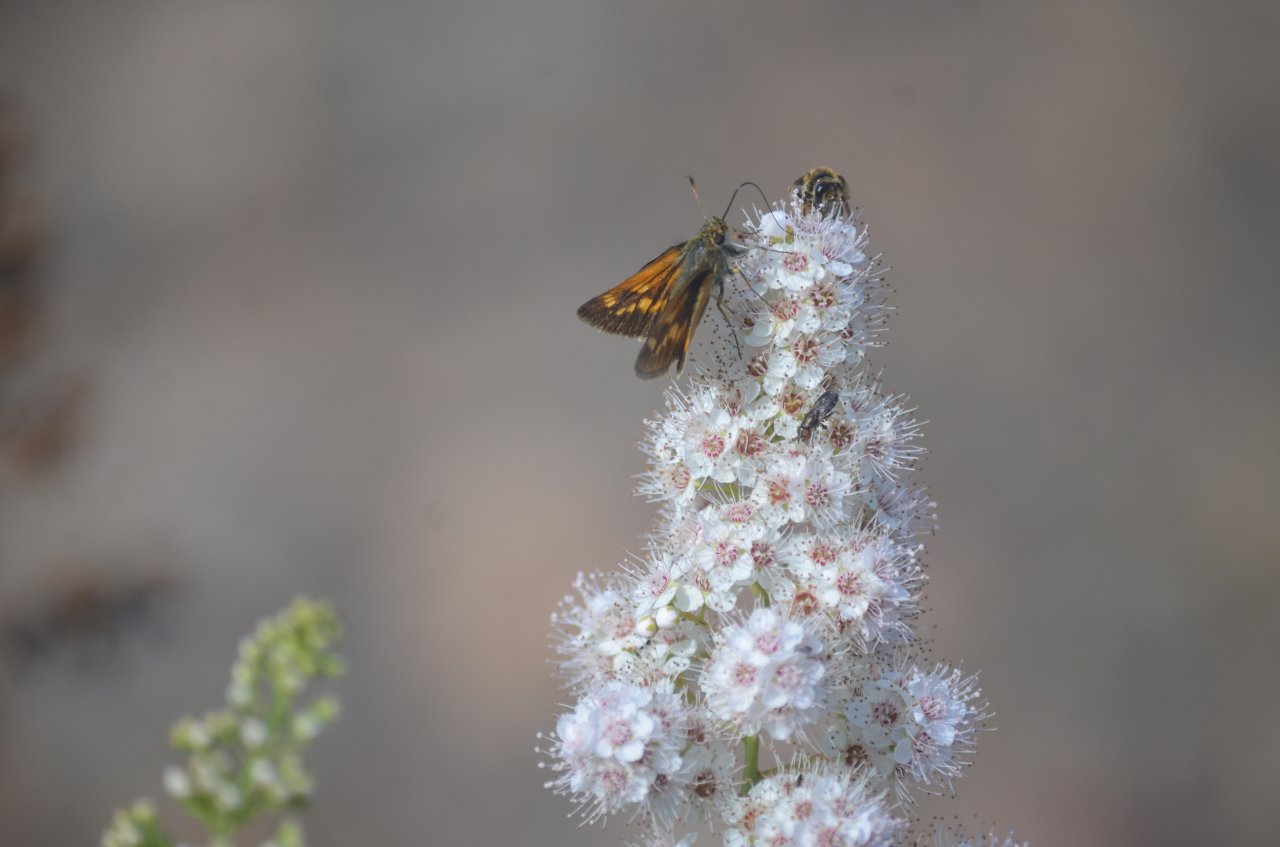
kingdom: Animalia
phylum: Arthropoda
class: Insecta
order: Lepidoptera
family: Hesperiidae
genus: Polites
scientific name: Polites
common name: Long Dash Skipper
